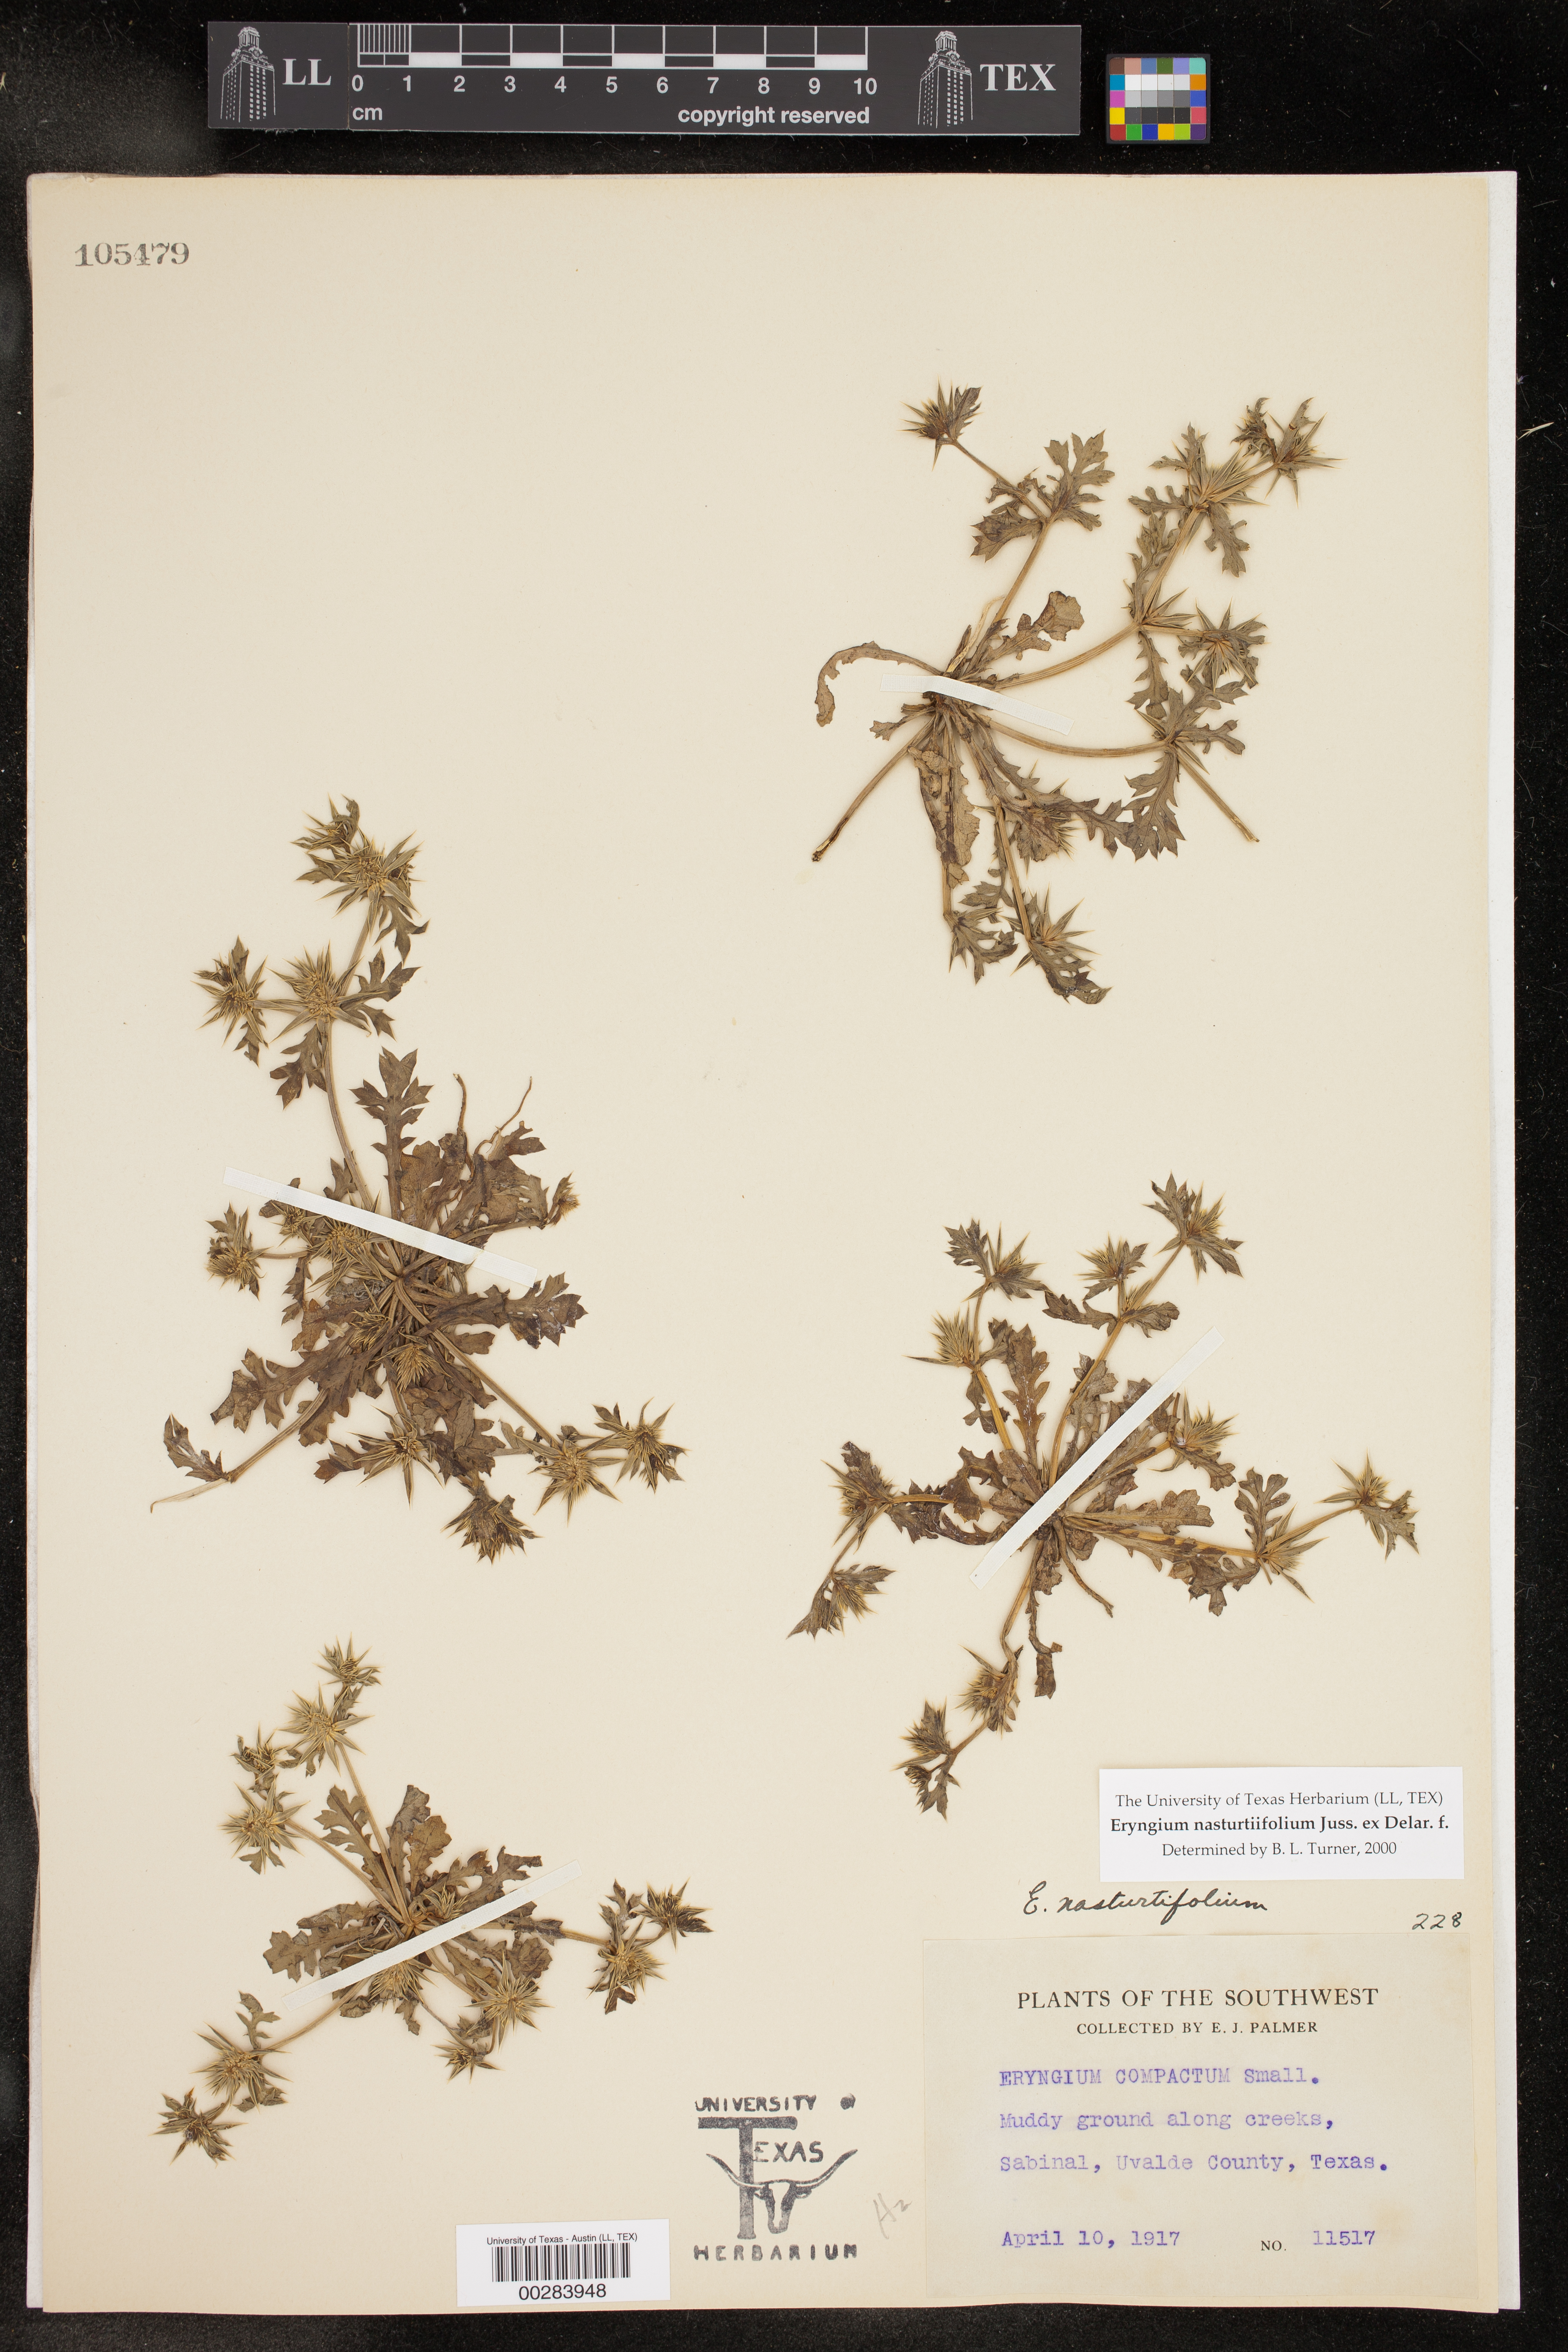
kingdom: Plantae
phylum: Tracheophyta
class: Magnoliopsida
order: Apiales
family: Apiaceae
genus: Eryngium
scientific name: Eryngium nasturtiifolium
